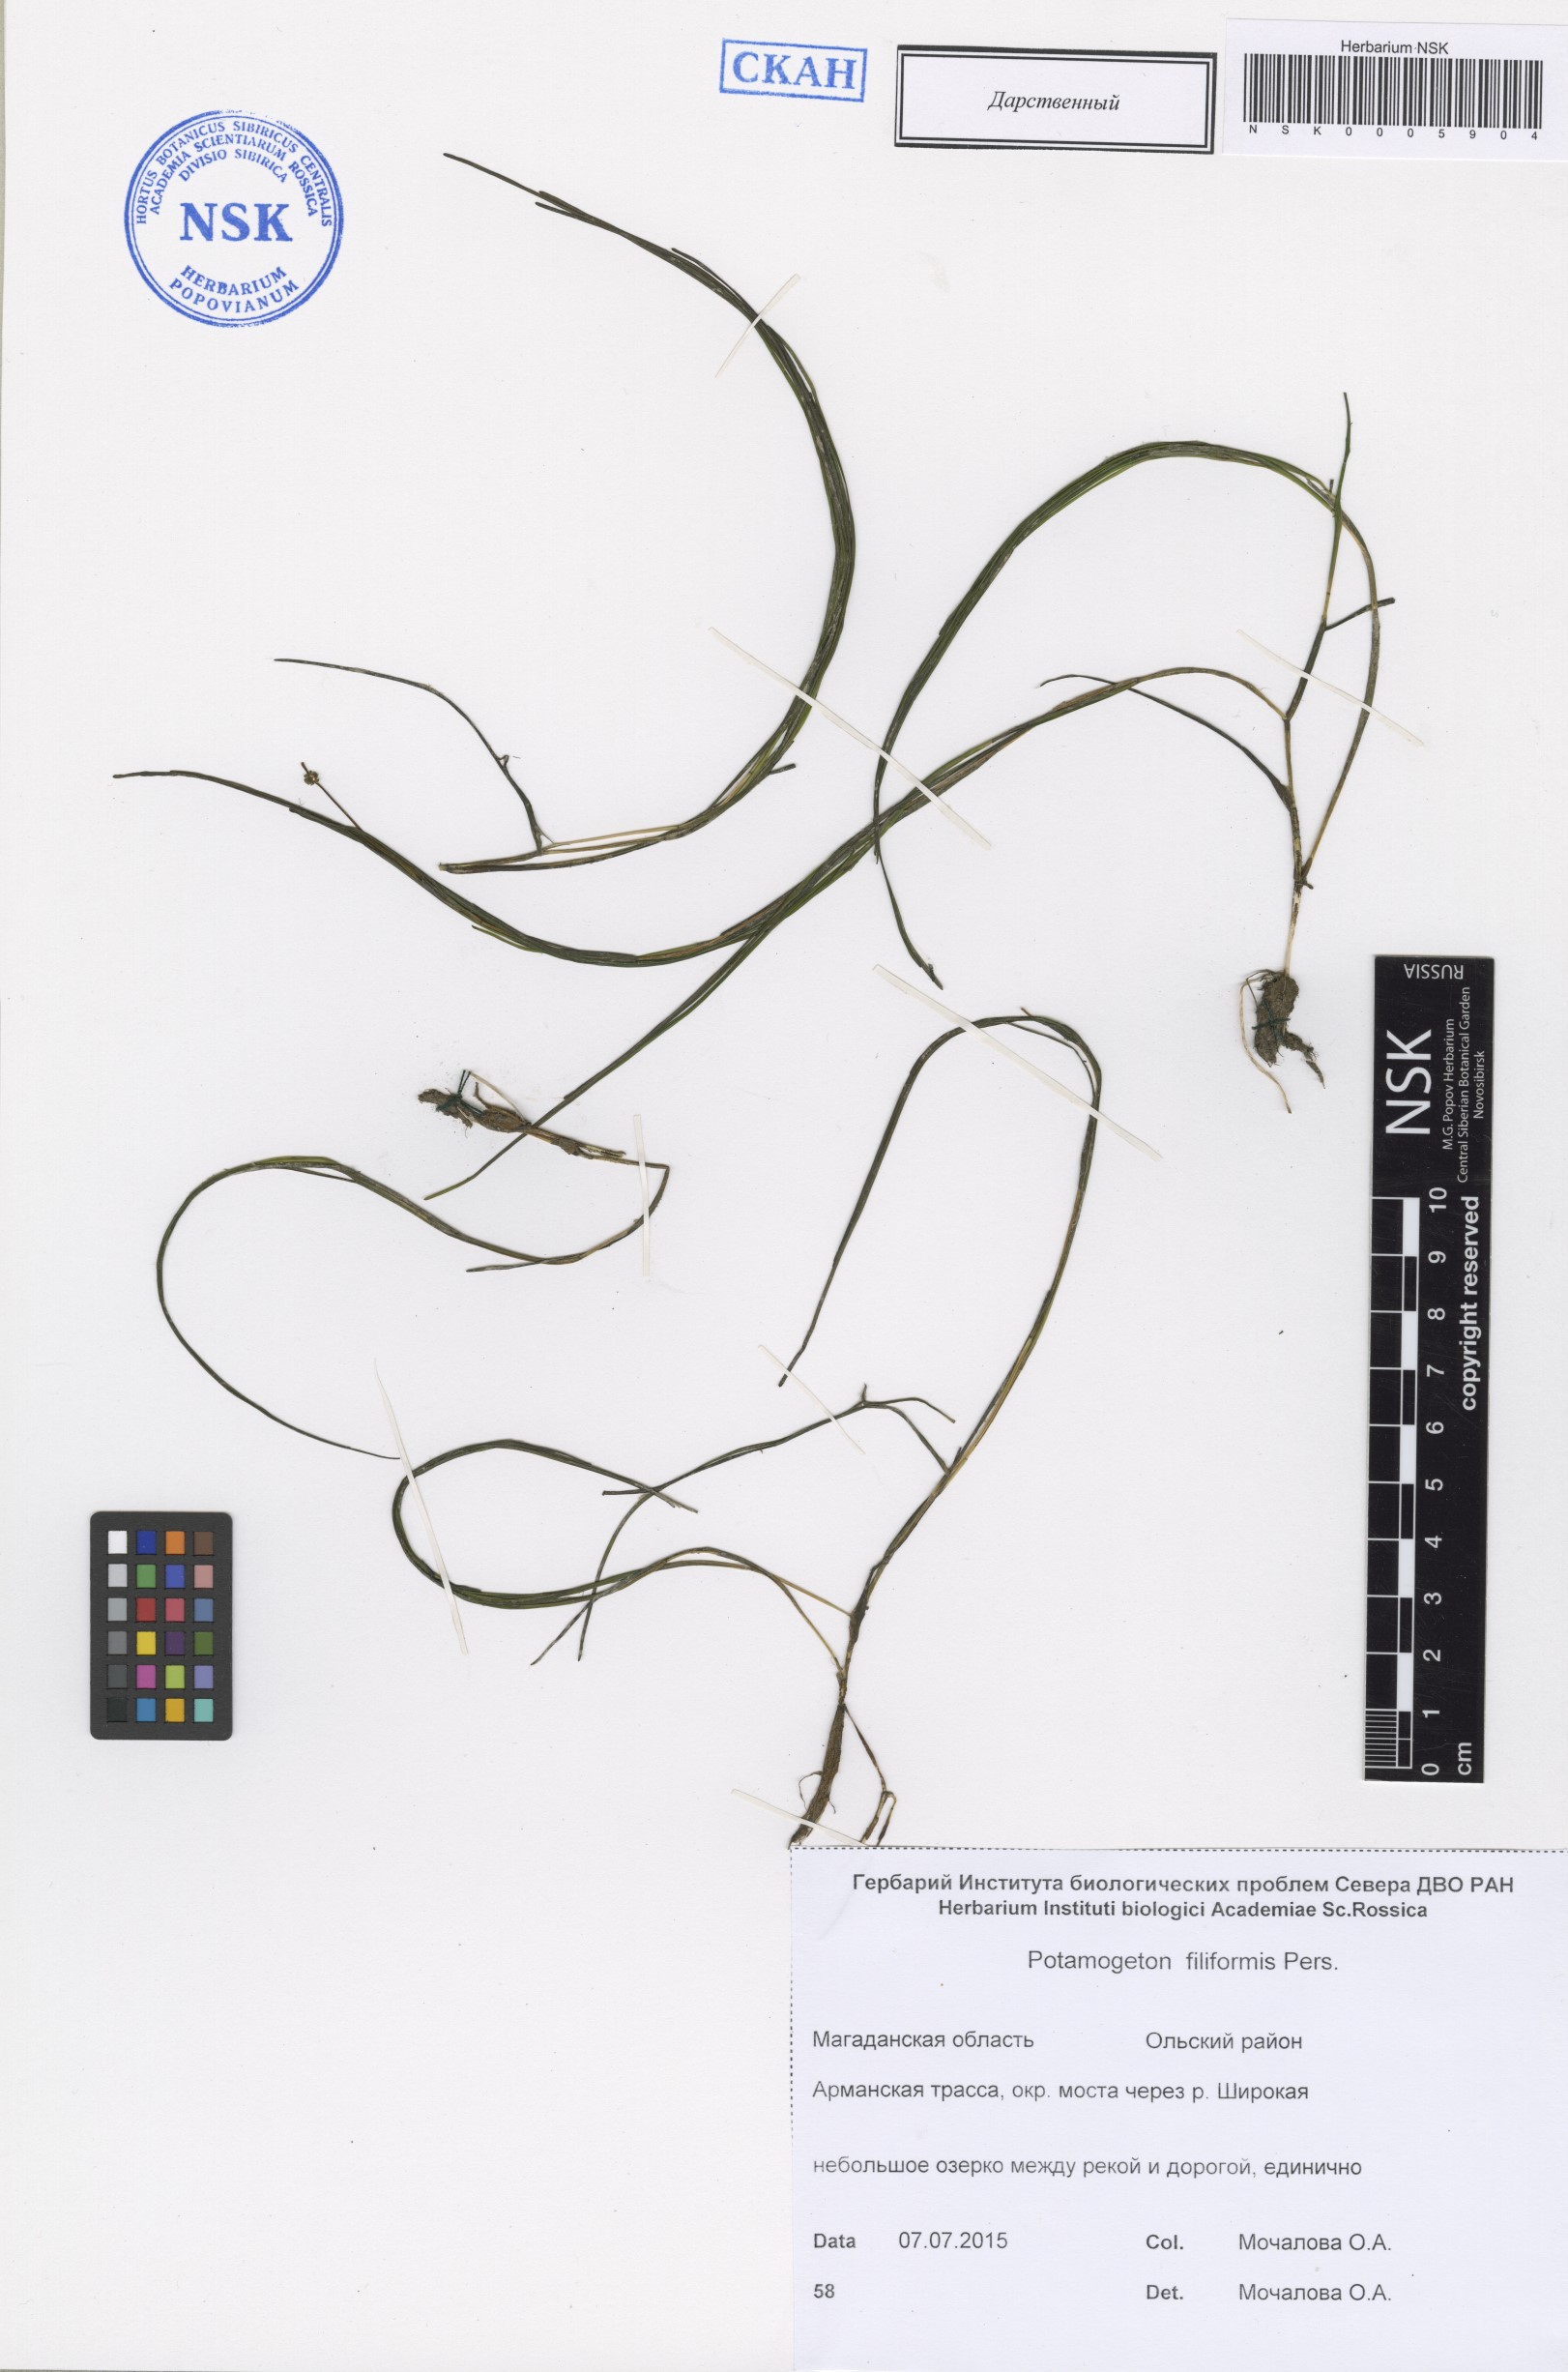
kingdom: Plantae
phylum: Tracheophyta
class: Liliopsida
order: Alismatales
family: Potamogetonaceae
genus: Stuckenia
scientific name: Stuckenia filiformis
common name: Alpine thread-leaved pondweed
